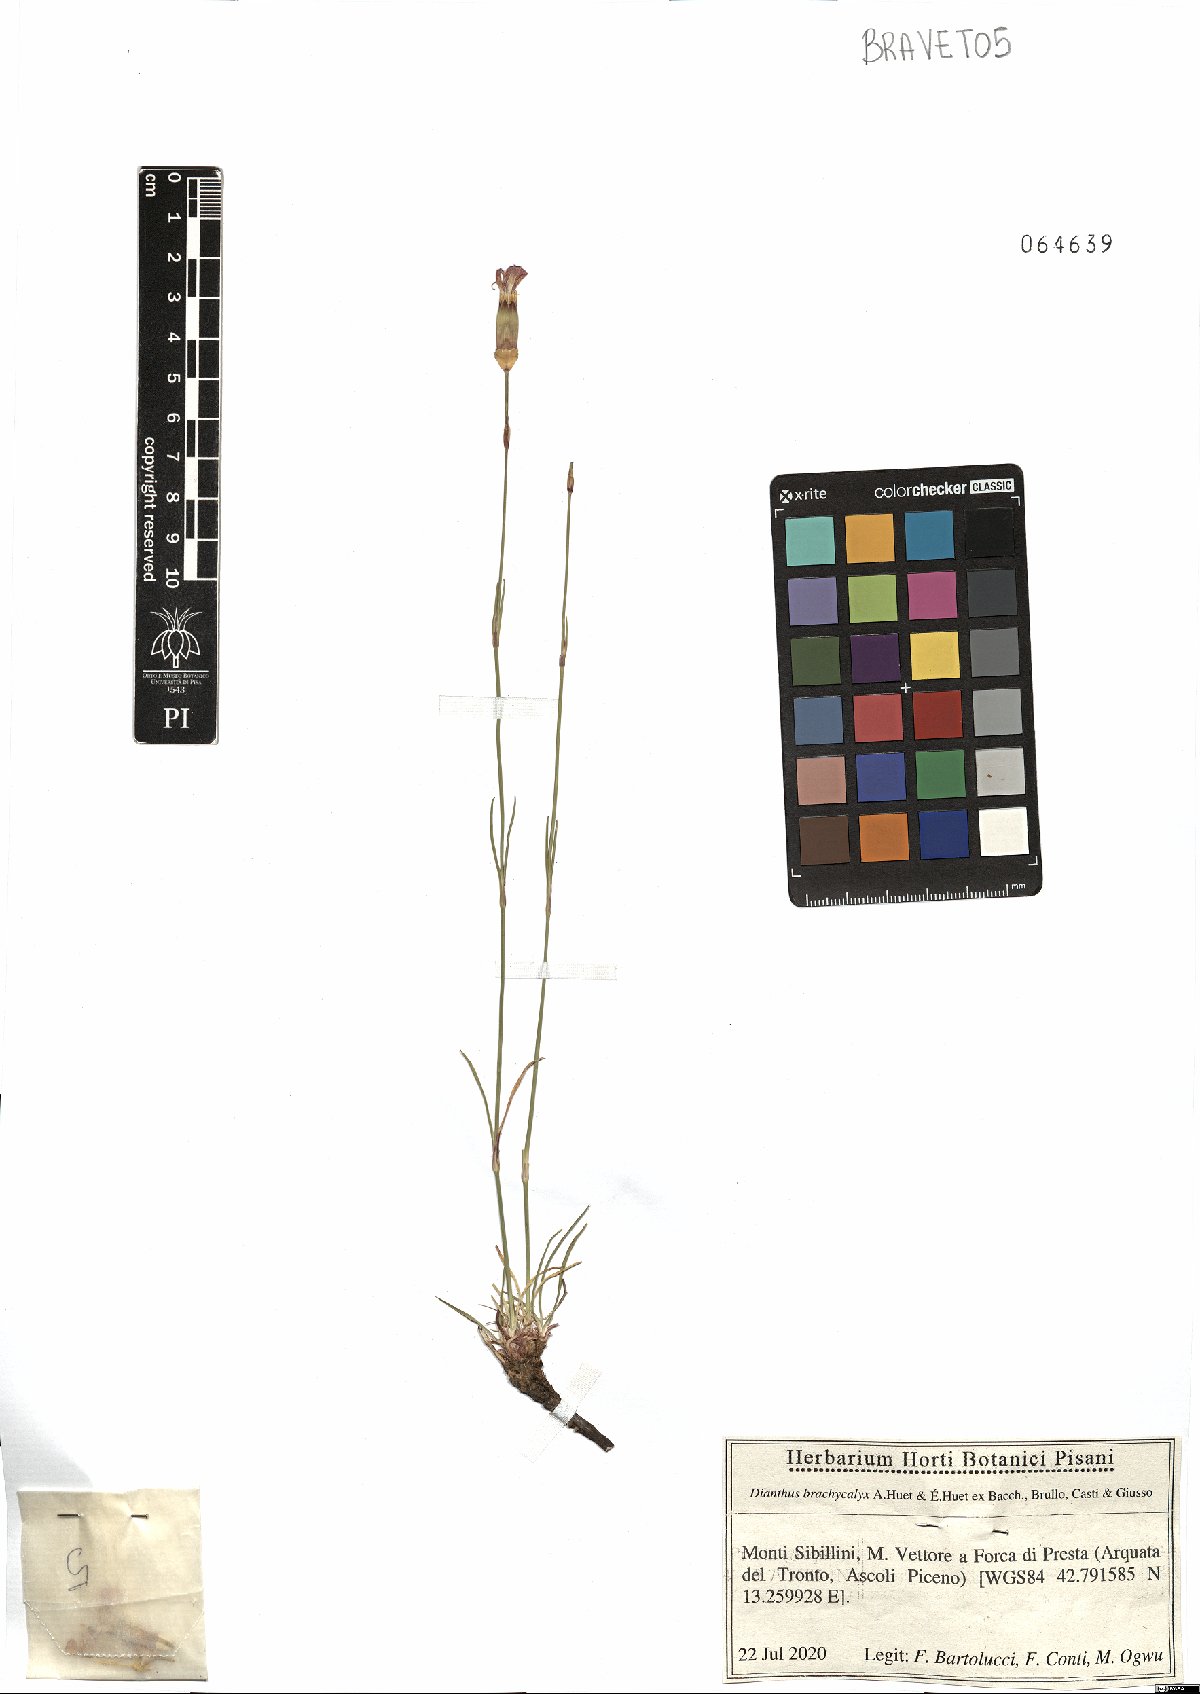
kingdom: Plantae
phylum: Tracheophyta
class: Magnoliopsida
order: Caryophyllales
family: Caryophyllaceae
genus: Dianthus
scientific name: Dianthus brachycalyx
